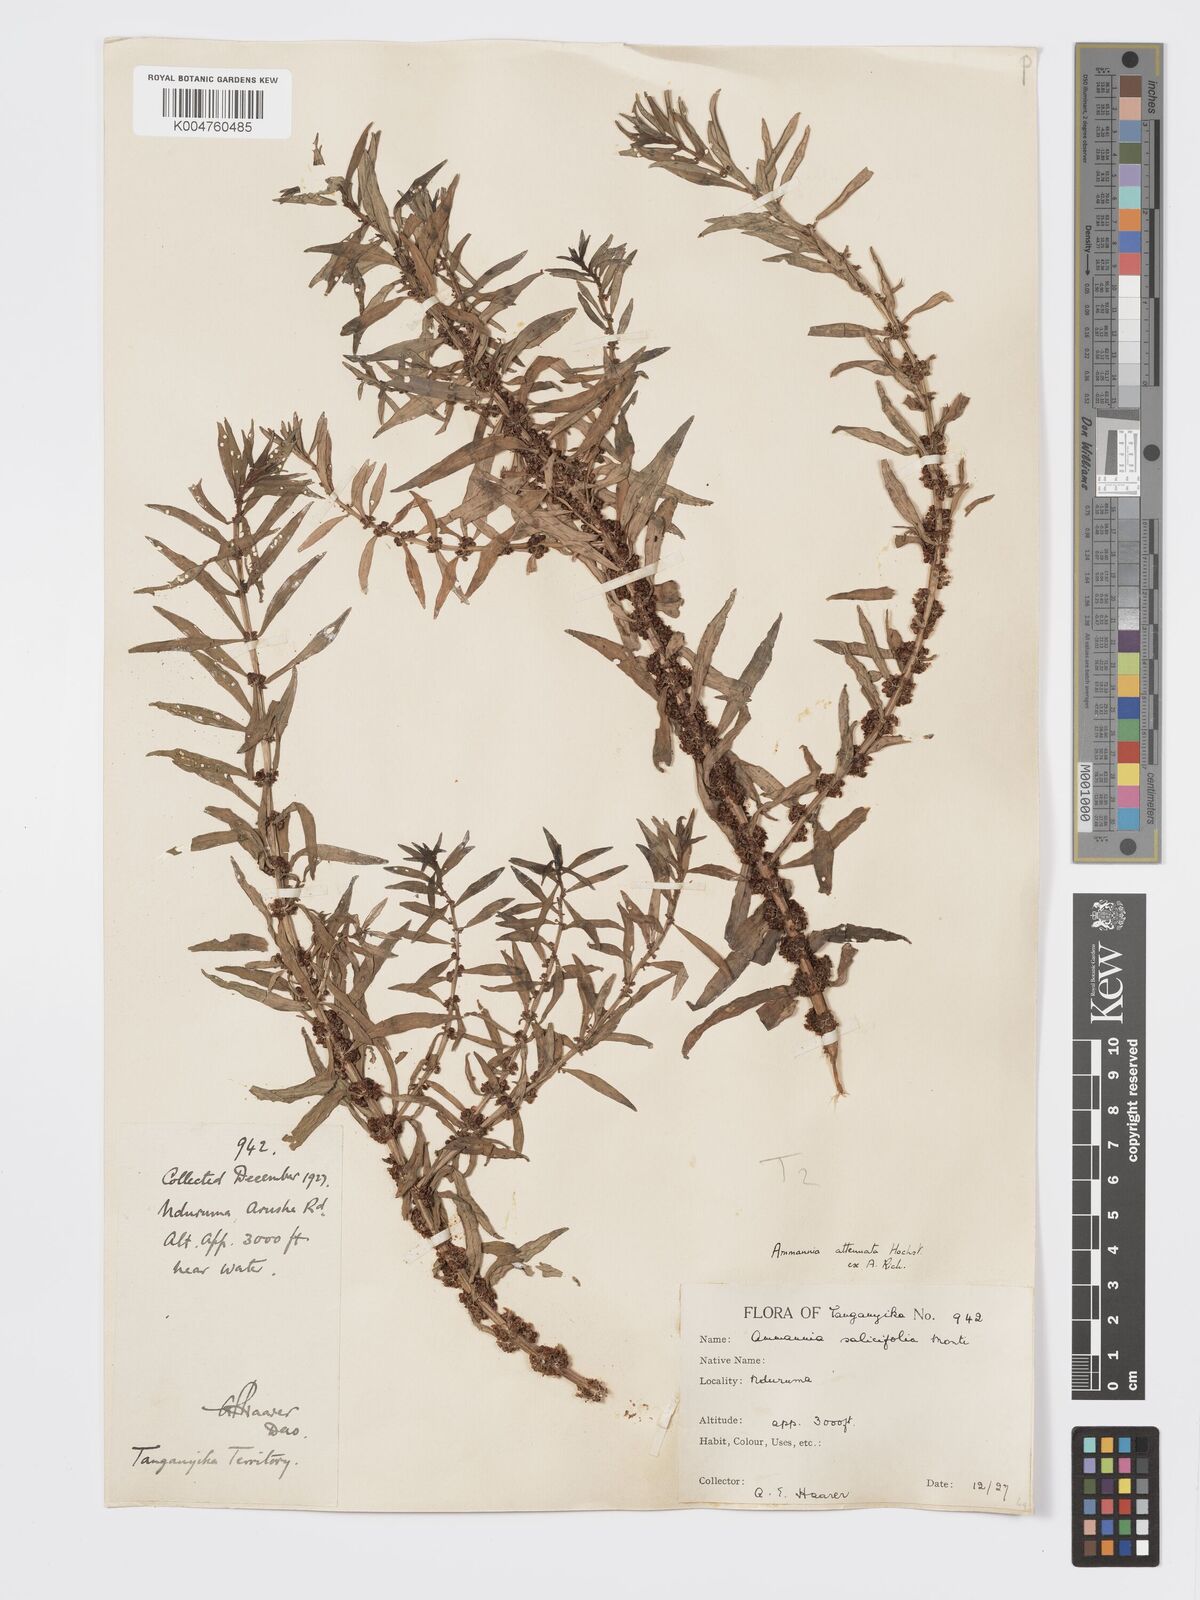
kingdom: Plantae
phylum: Tracheophyta
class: Magnoliopsida
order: Myrtales
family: Lythraceae
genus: Ammannia
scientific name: Ammannia
